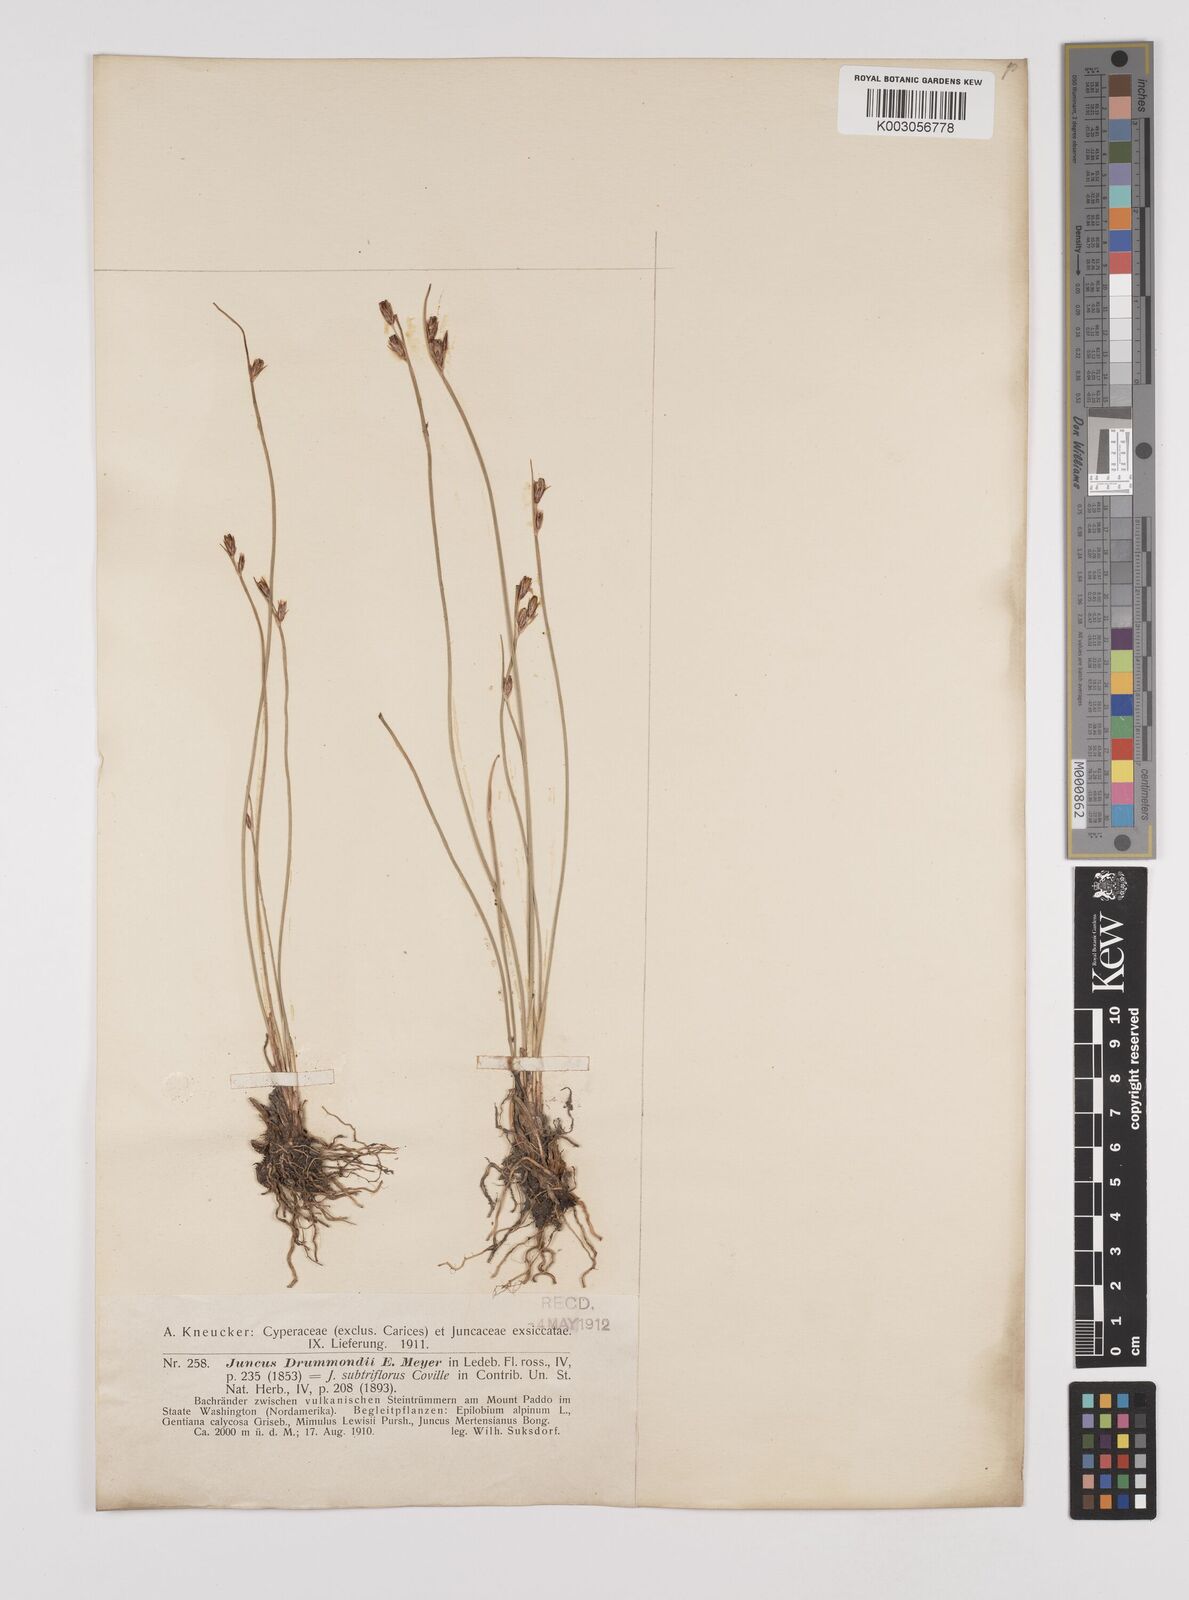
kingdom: Plantae
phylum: Tracheophyta
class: Liliopsida
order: Poales
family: Juncaceae
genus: Juncus
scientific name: Juncus drummondii
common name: Drummond's rush
